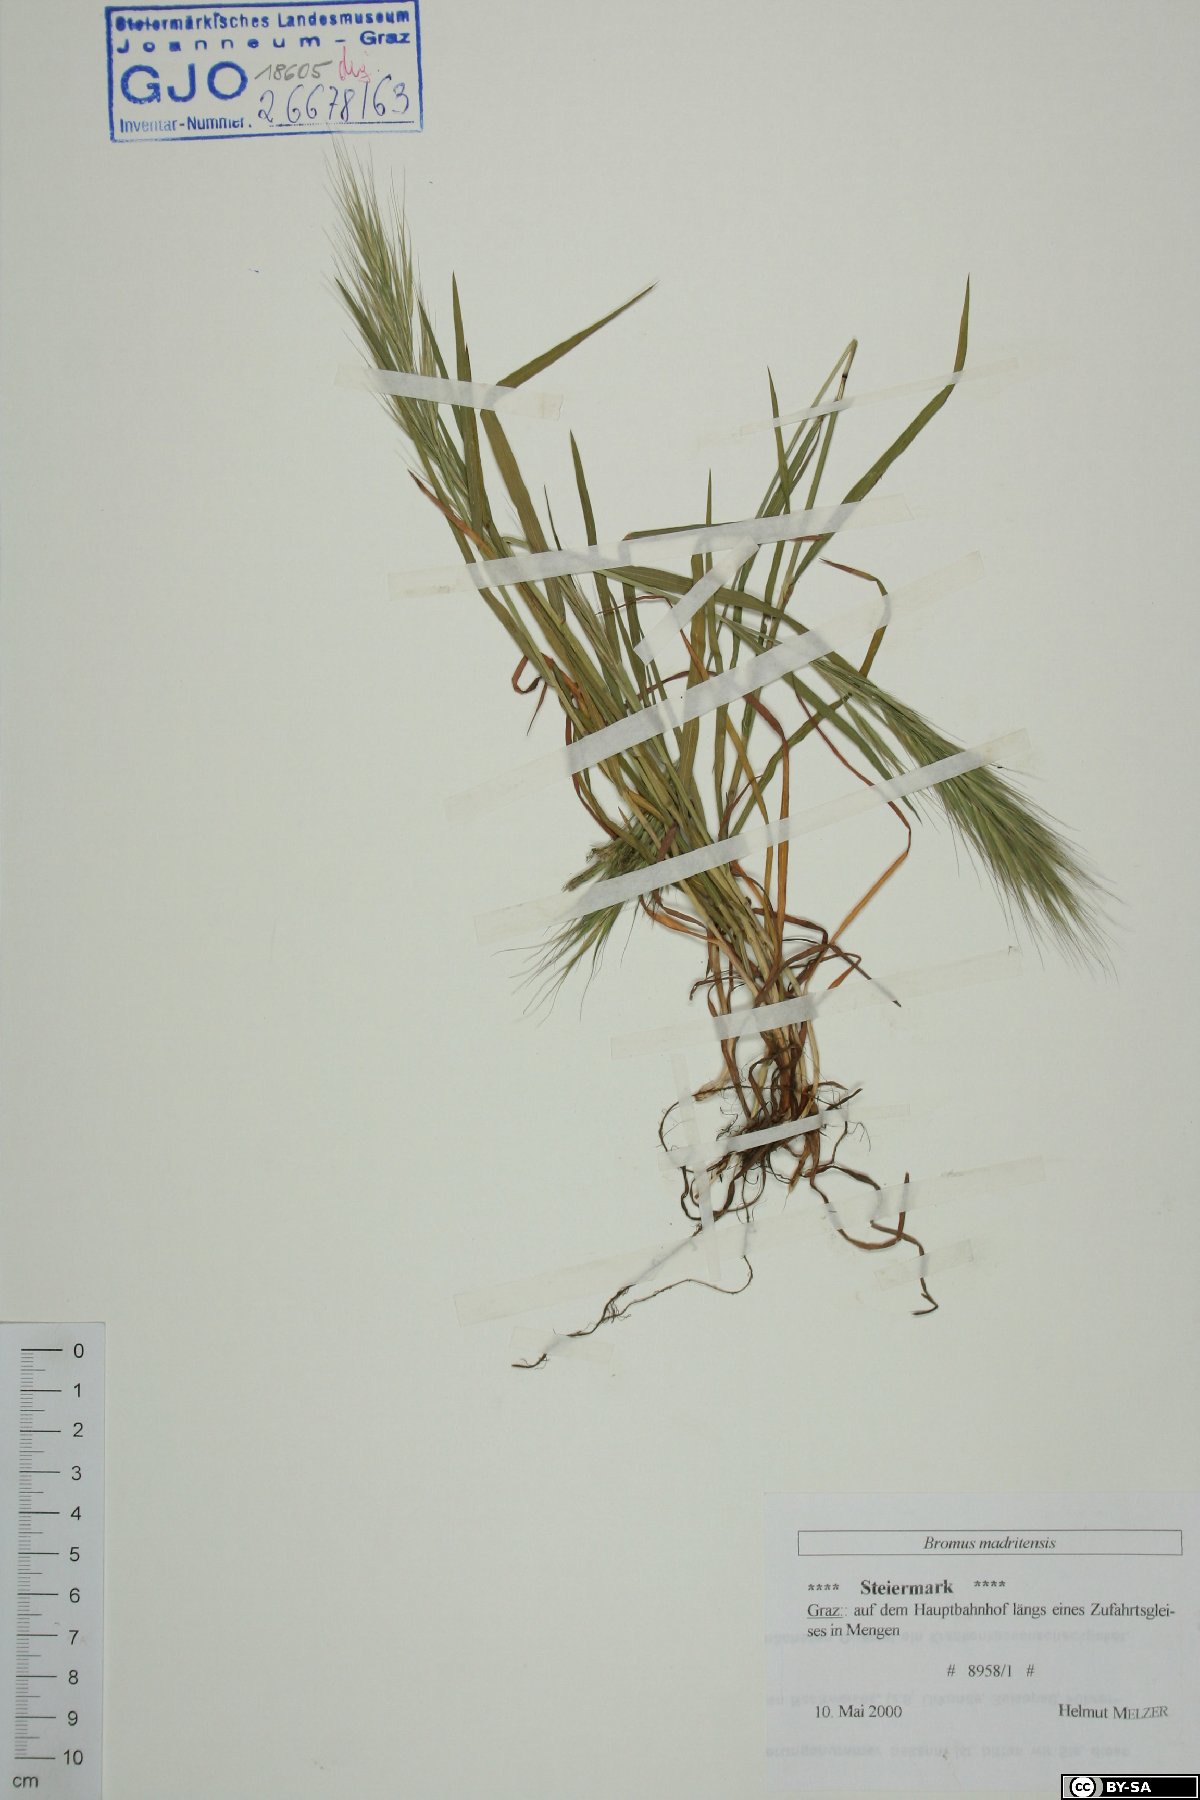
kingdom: Plantae
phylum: Tracheophyta
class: Liliopsida
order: Poales
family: Poaceae
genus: Bromus
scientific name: Bromus madritensis
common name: Compact brome
